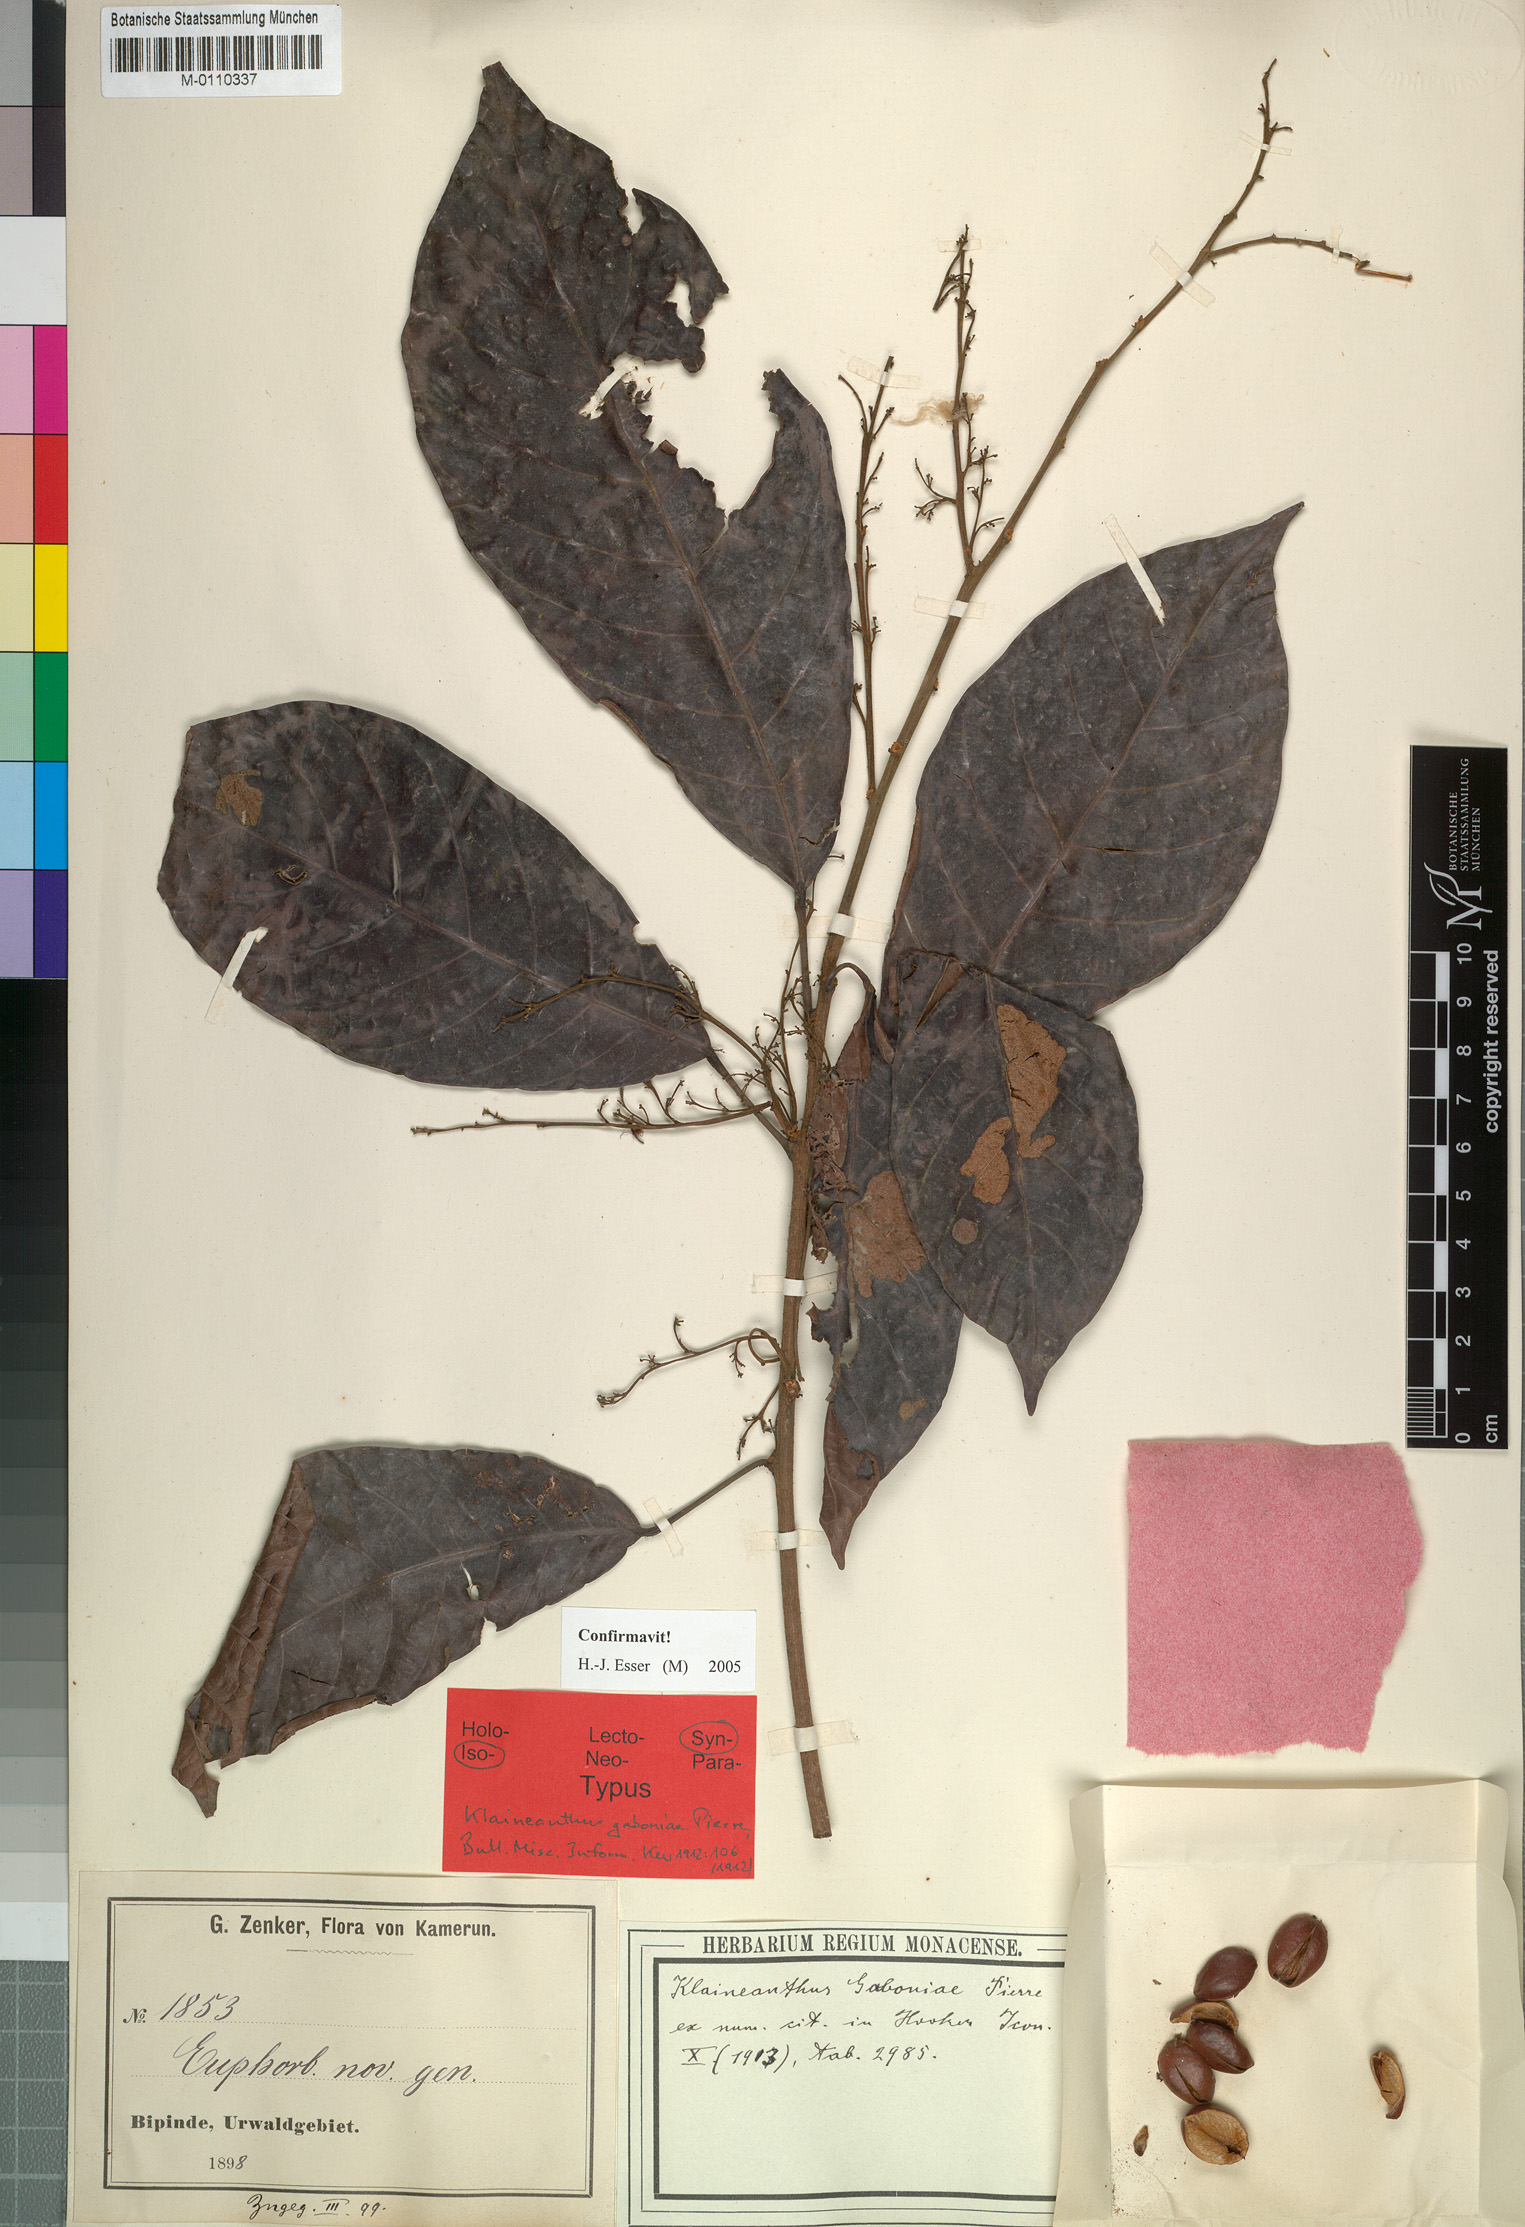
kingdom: Plantae
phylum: Tracheophyta
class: Magnoliopsida
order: Malpighiales
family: Euphorbiaceae
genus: Klaineanthus
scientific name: Klaineanthus gaboniae
